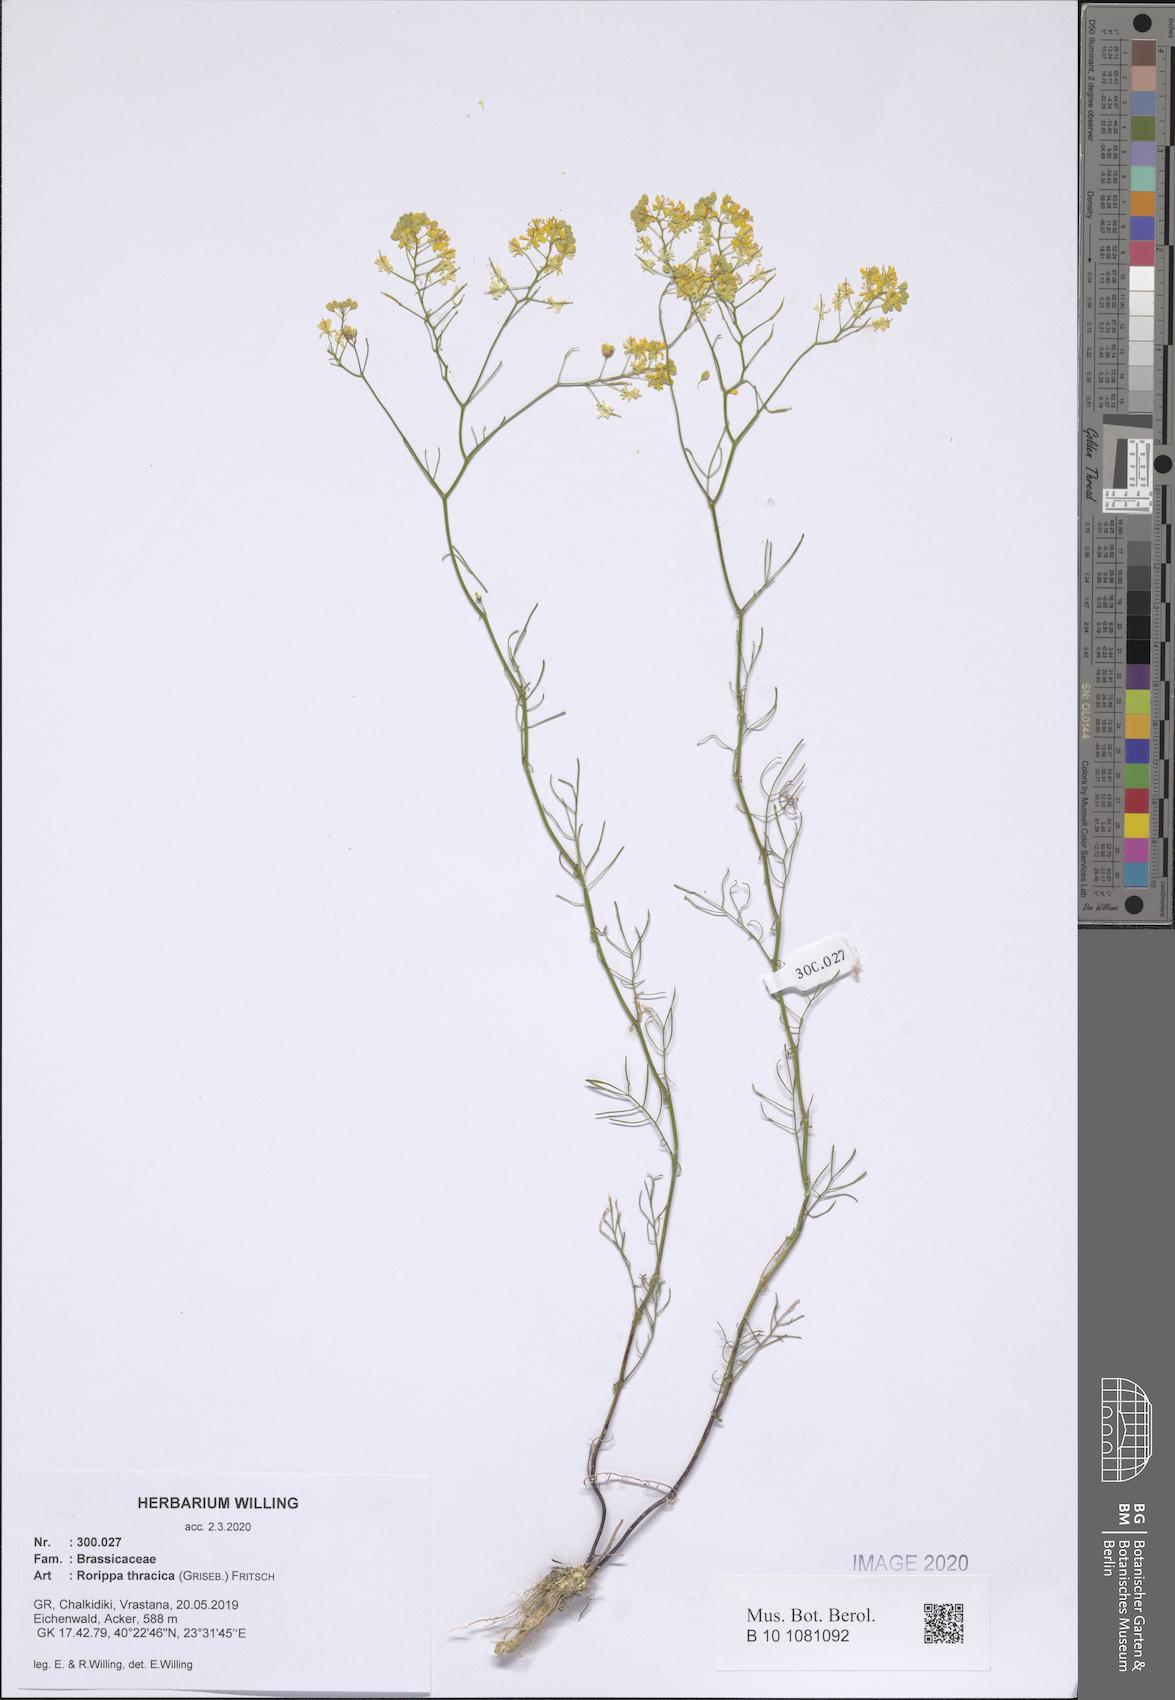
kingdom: Plantae
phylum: Tracheophyta
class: Magnoliopsida
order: Brassicales
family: Brassicaceae
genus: Rorippa
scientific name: Rorippa lippizensis
